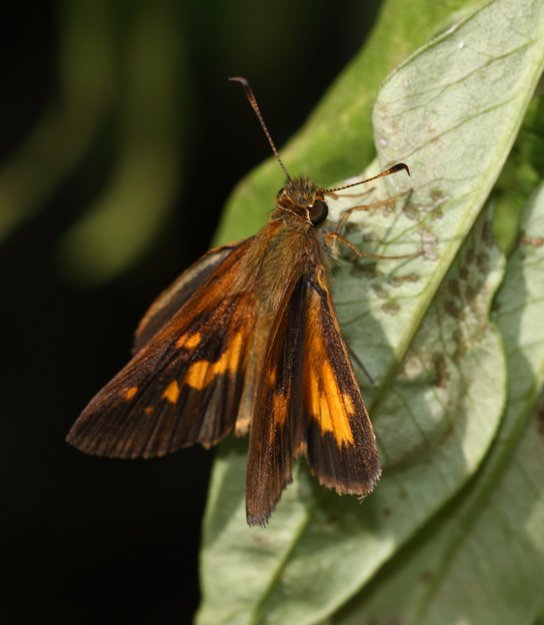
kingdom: Animalia
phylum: Arthropoda
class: Insecta
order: Lepidoptera
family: Hesperiidae
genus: Poanes
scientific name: Poanes viator
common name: Broad-winged Skipper
